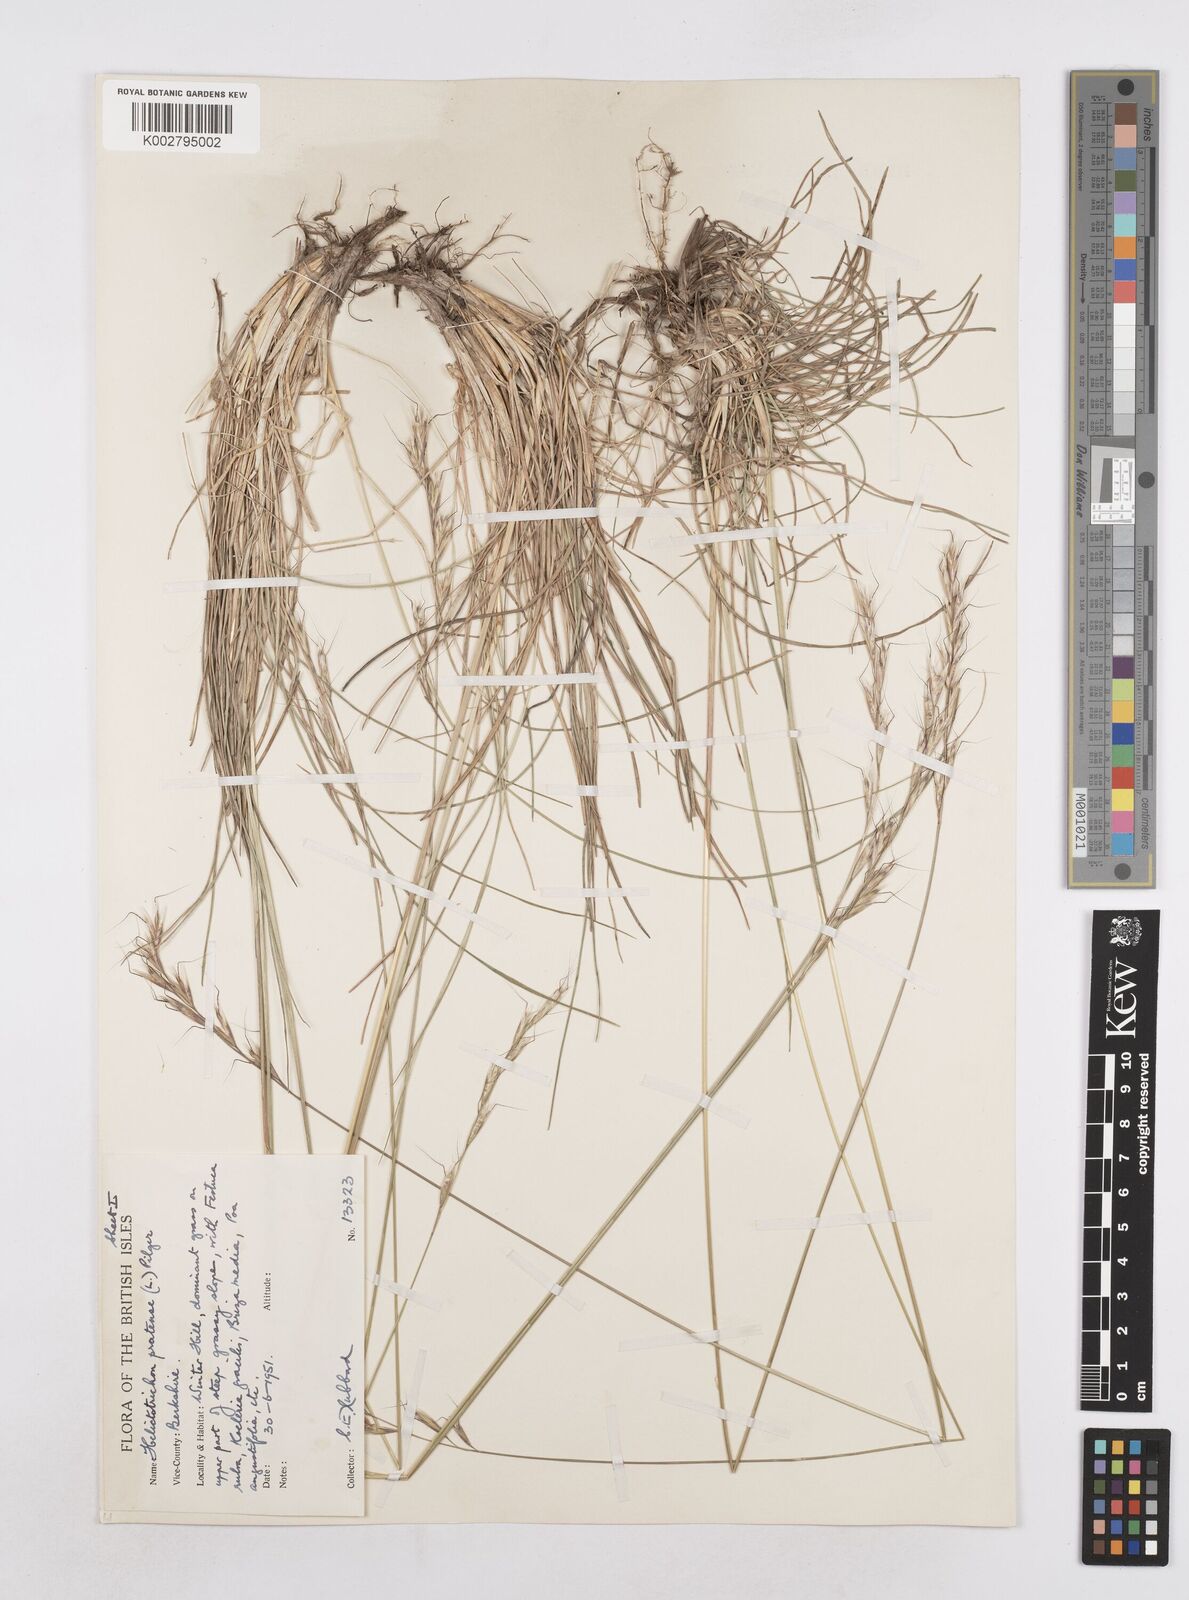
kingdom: Plantae
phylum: Tracheophyta
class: Liliopsida
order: Poales
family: Poaceae
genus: Helictochloa
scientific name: Helictochloa pratensis
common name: Meadow oat grass
